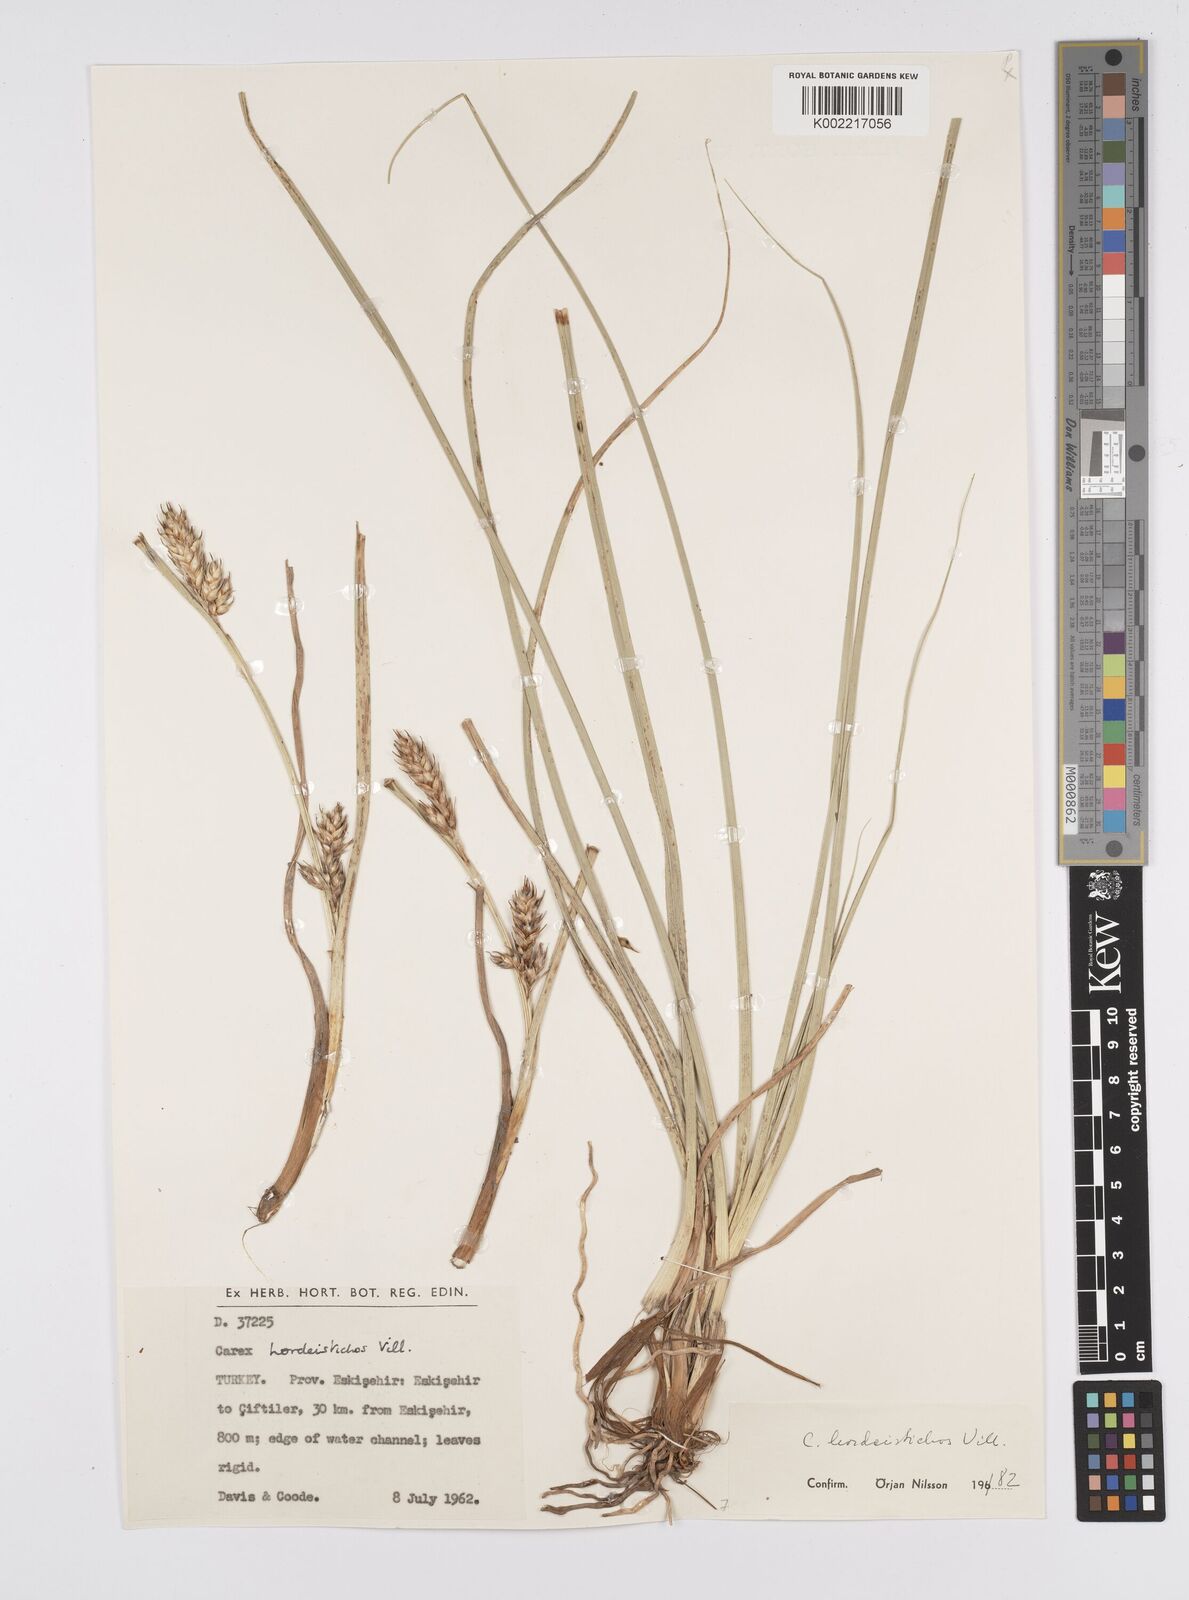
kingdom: Plantae
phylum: Tracheophyta
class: Liliopsida
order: Poales
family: Cyperaceae
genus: Carex
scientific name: Carex hordeistichos
